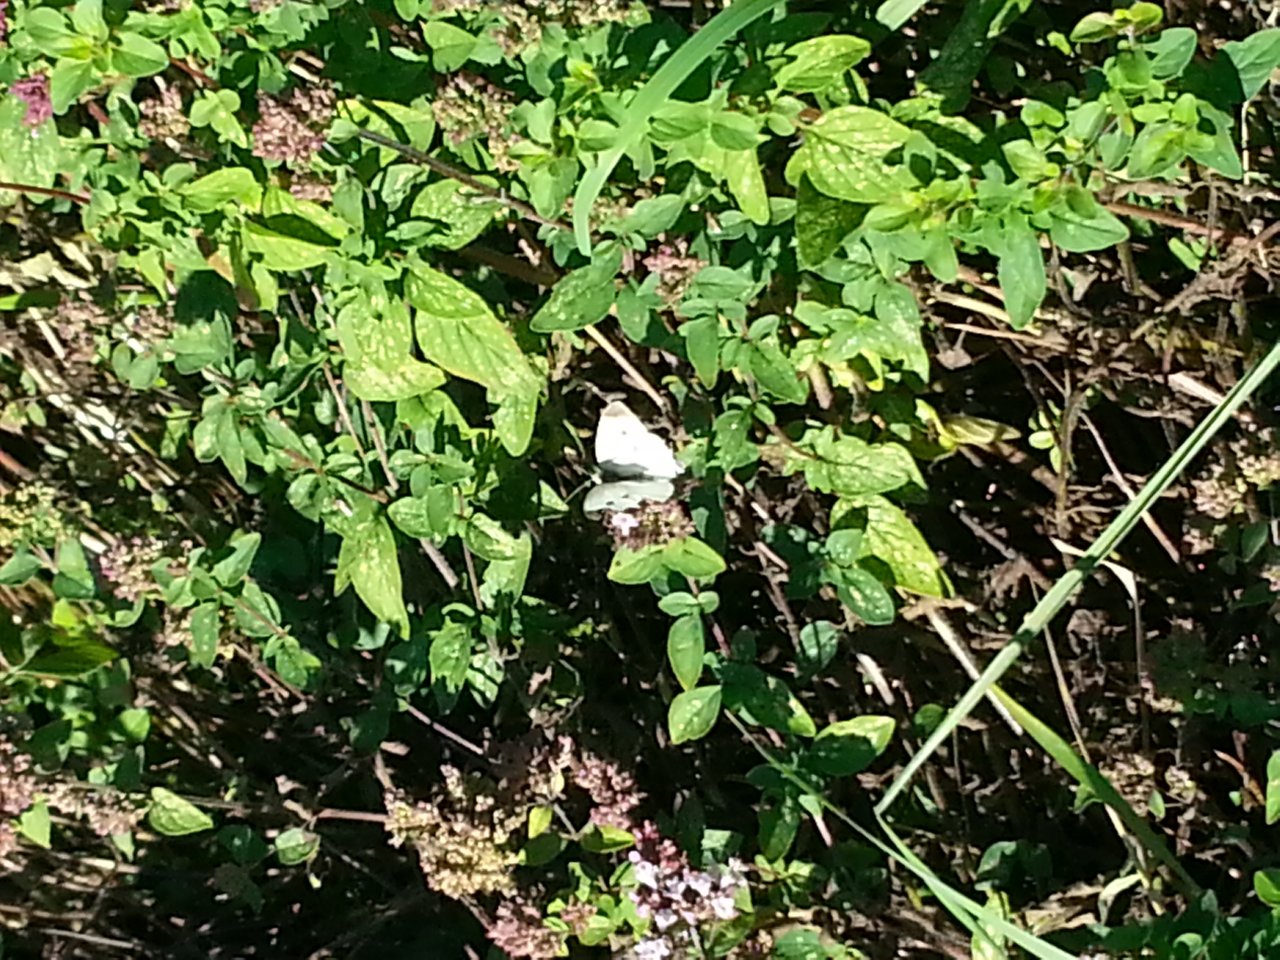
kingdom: Animalia
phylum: Arthropoda
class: Insecta
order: Lepidoptera
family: Pieridae
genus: Pieris
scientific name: Pieris rapae
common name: Cabbage White
